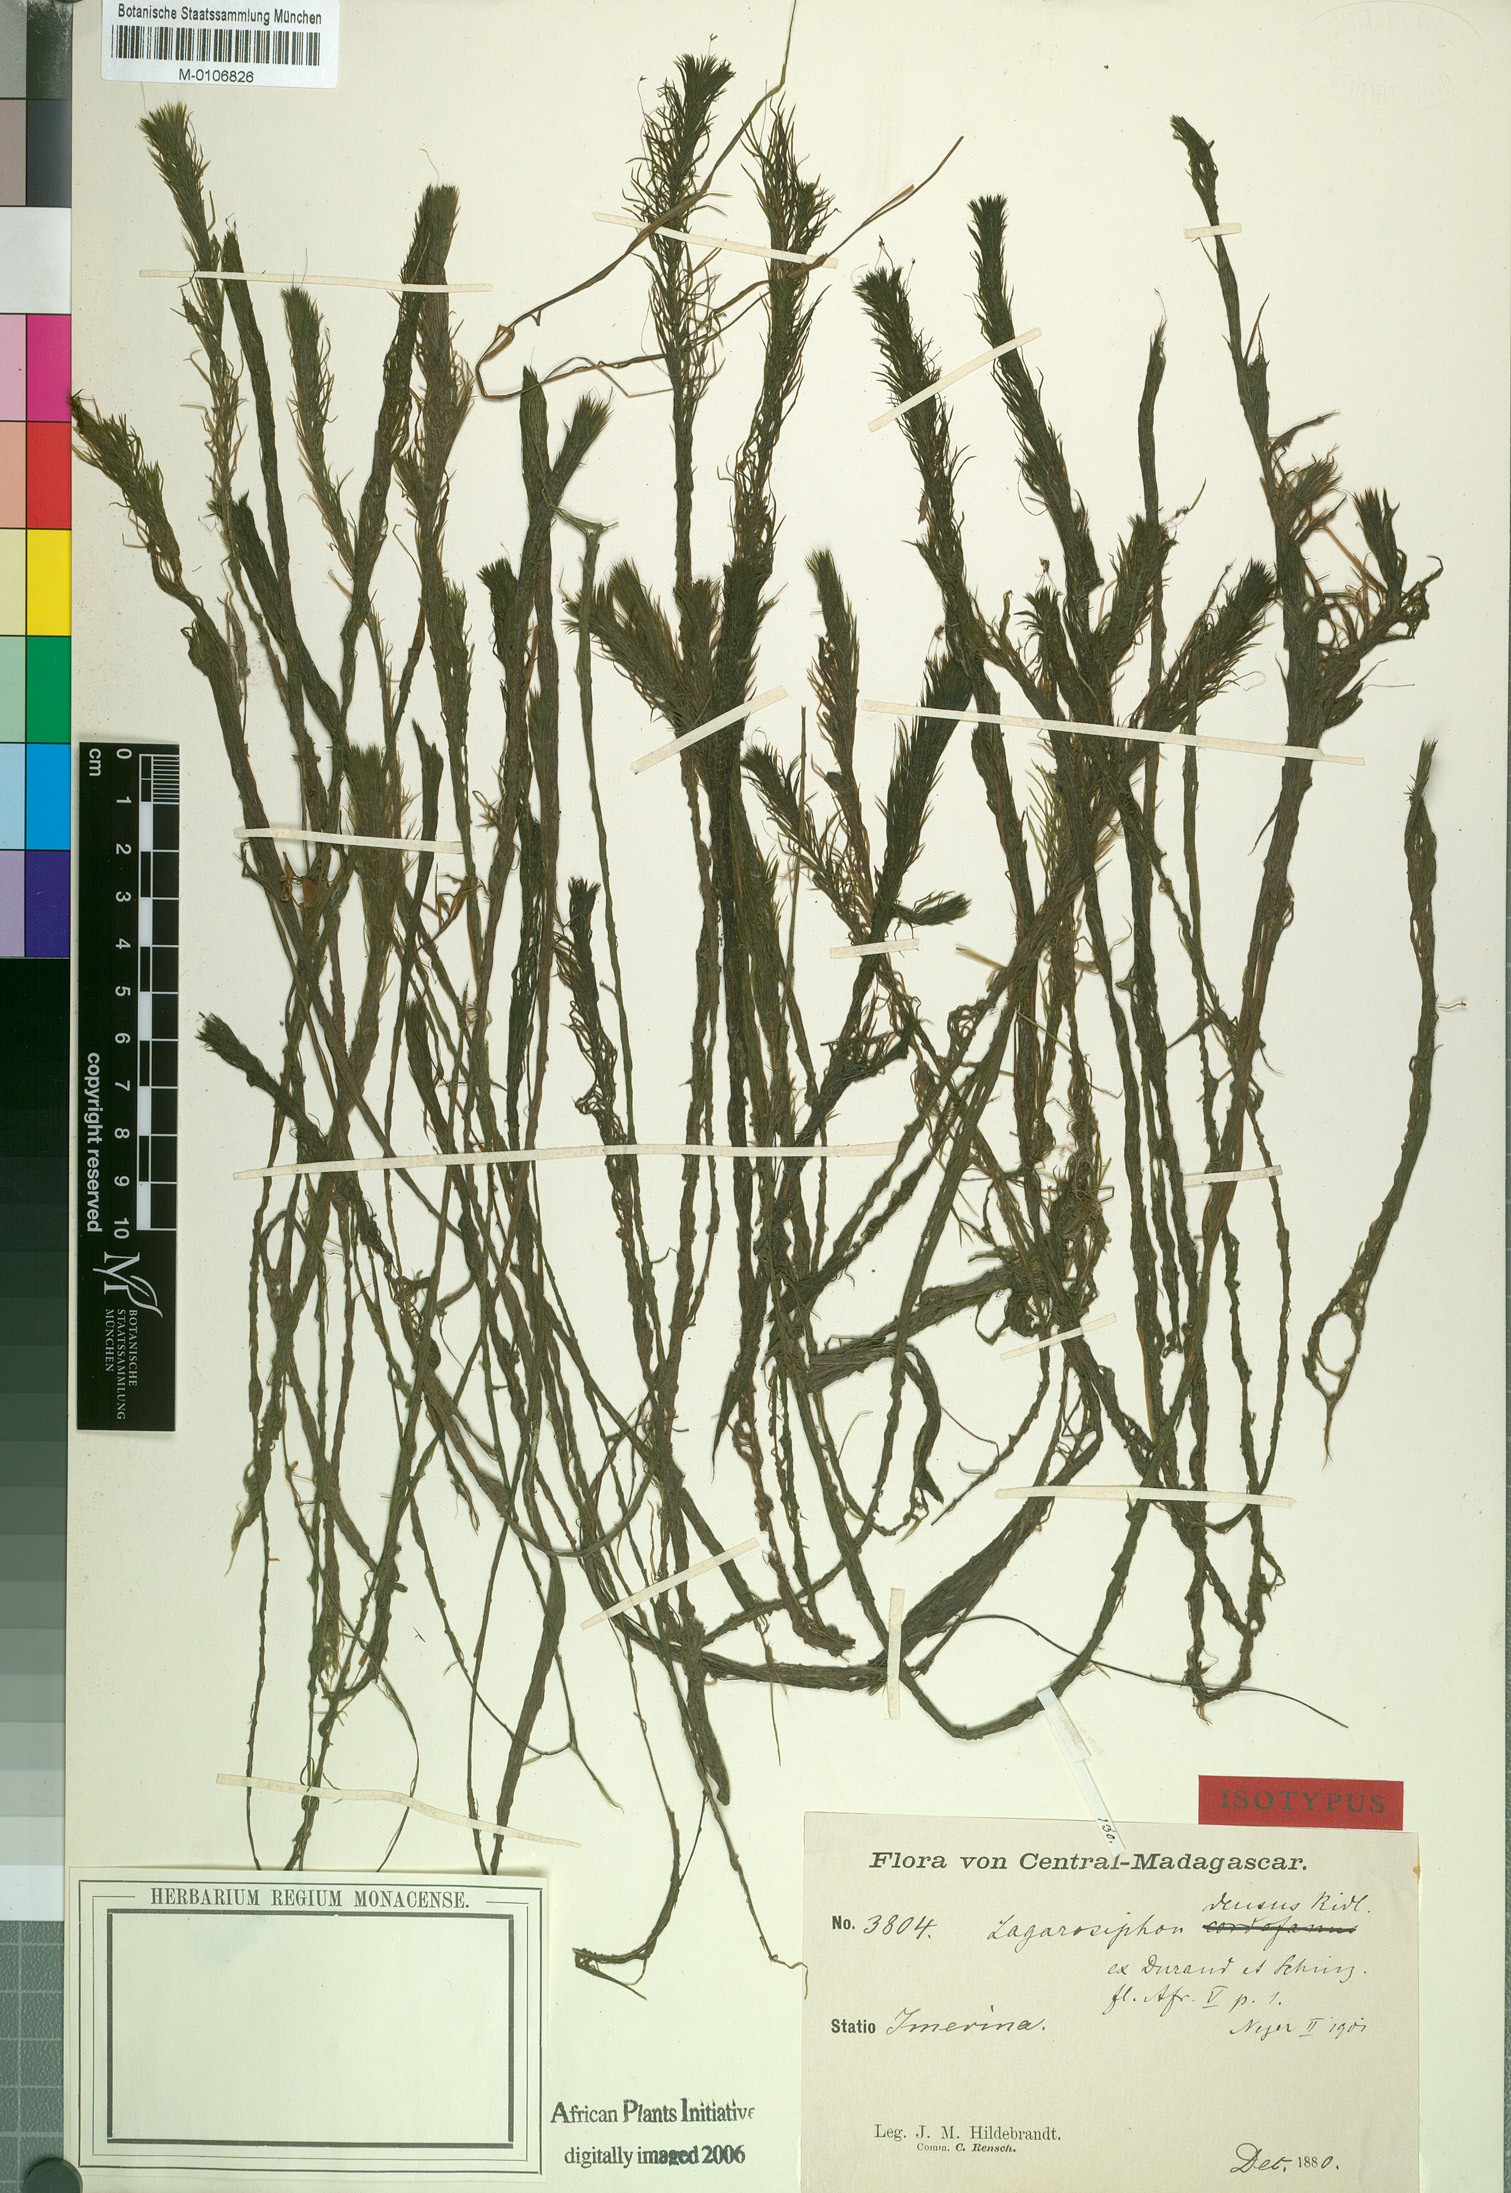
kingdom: Plantae
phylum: Tracheophyta
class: Liliopsida
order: Alismatales
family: Hydrocharitaceae
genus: Lagarosiphon
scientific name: Lagarosiphon madagascariensis
